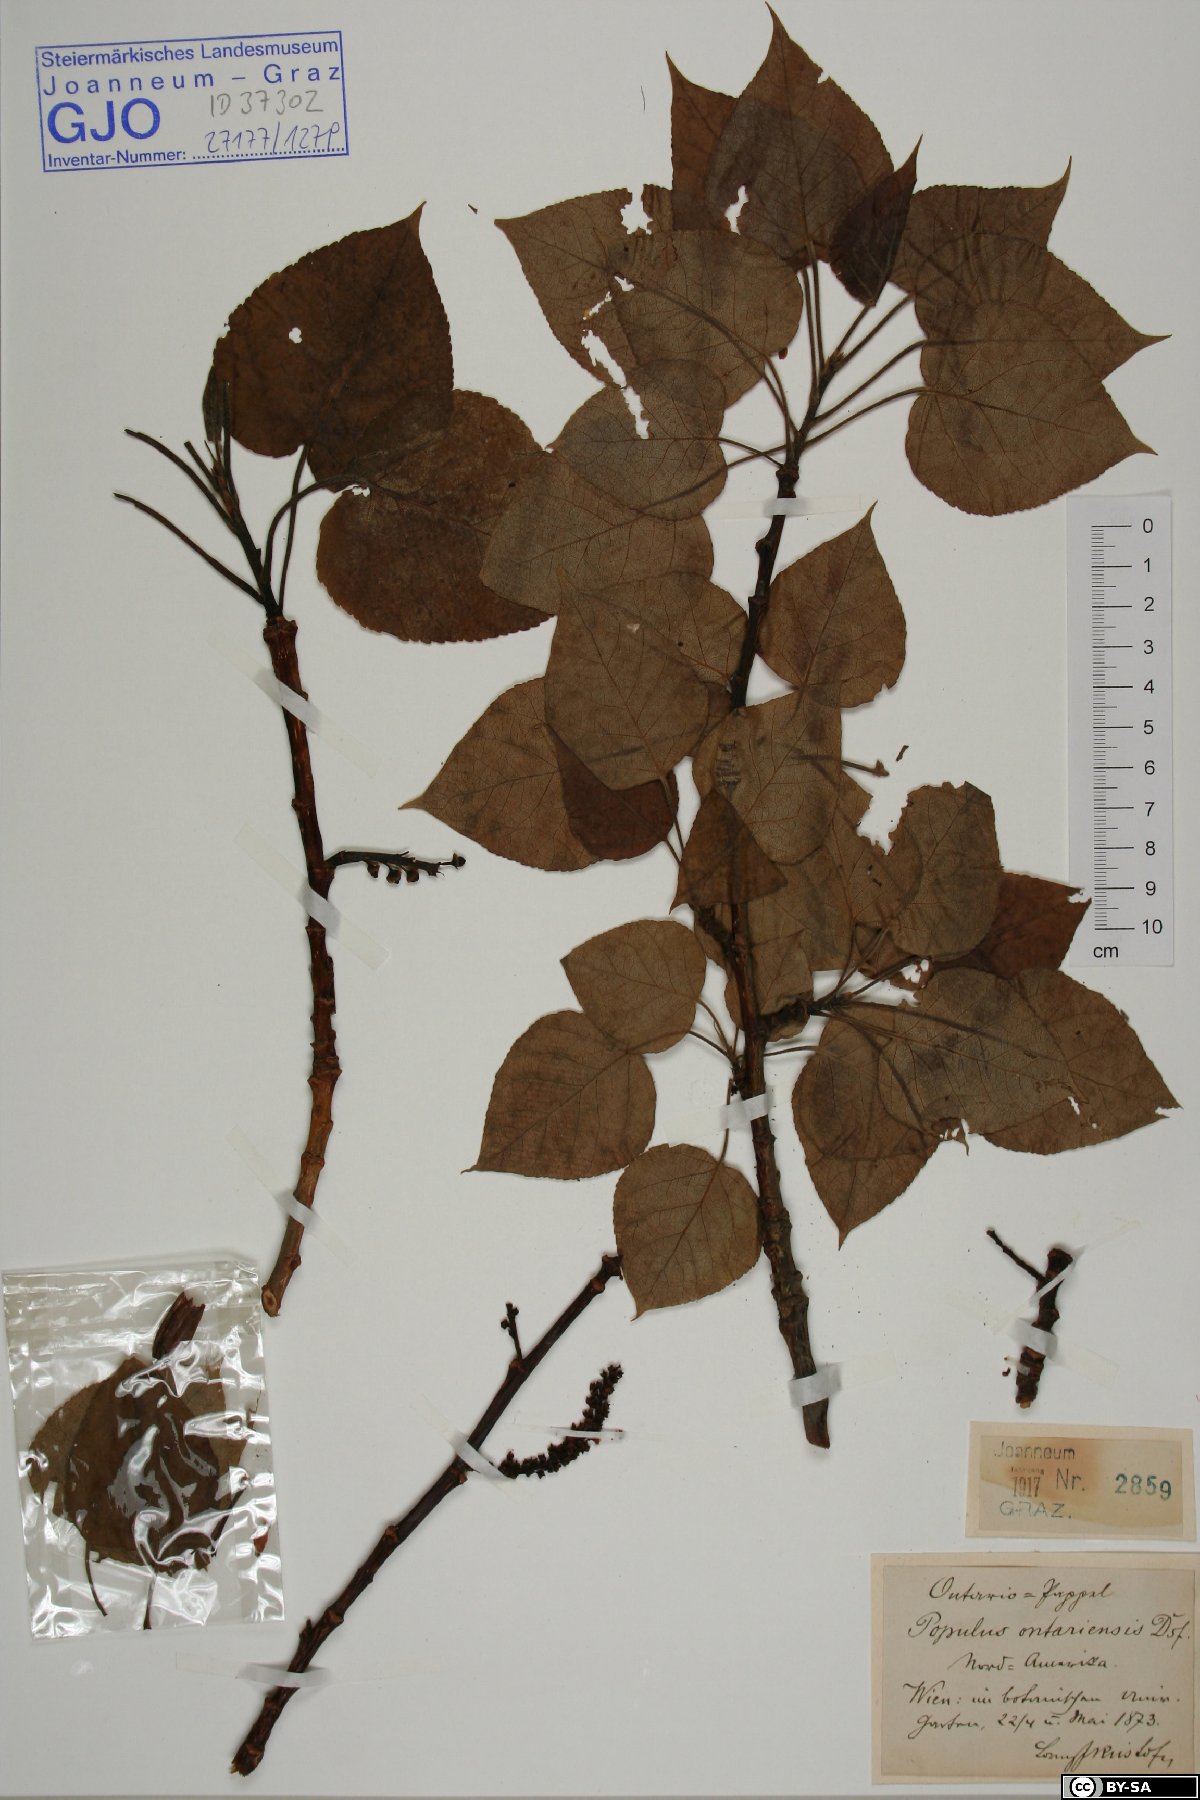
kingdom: Plantae
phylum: Tracheophyta
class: Magnoliopsida
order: Malpighiales
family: Salicaceae
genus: Populus
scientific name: Populus jackii
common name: Balm-of-gilead
